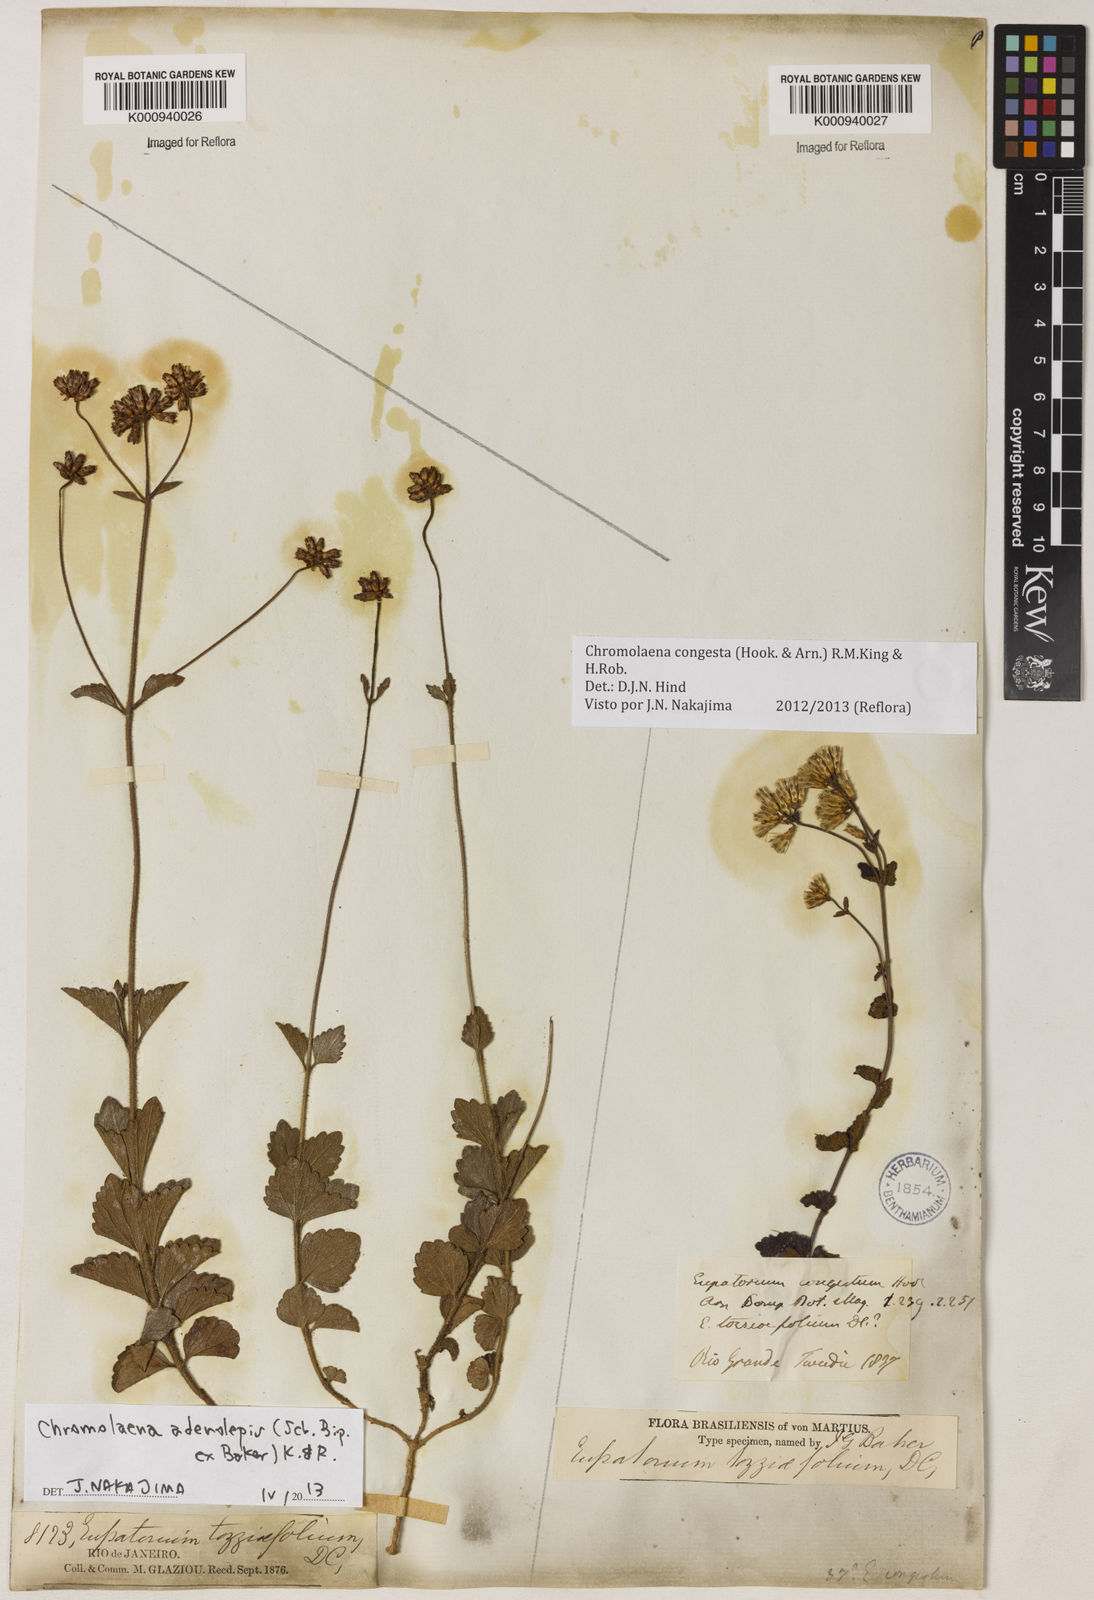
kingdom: Plantae
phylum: Tracheophyta
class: Magnoliopsida
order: Asterales
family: Asteraceae
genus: Chromolaena
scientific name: Chromolaena congesta
